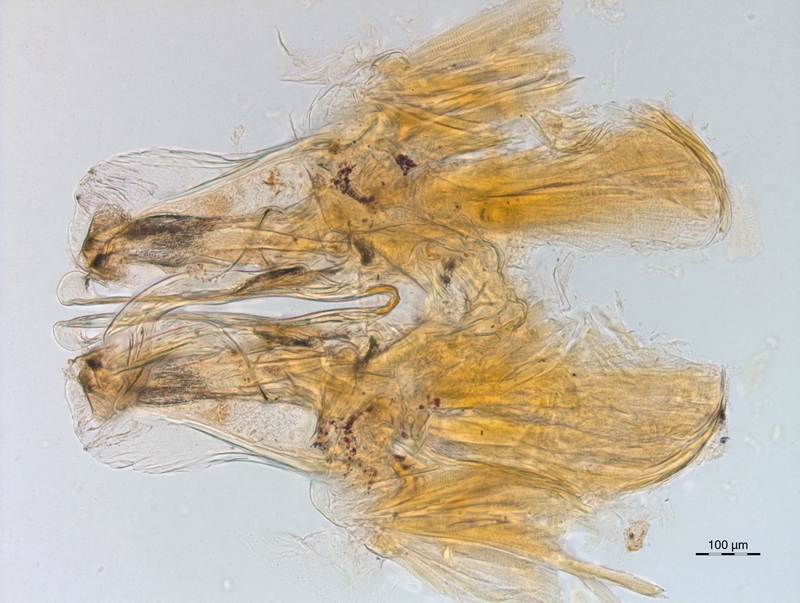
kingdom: Animalia
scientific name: Animalia
